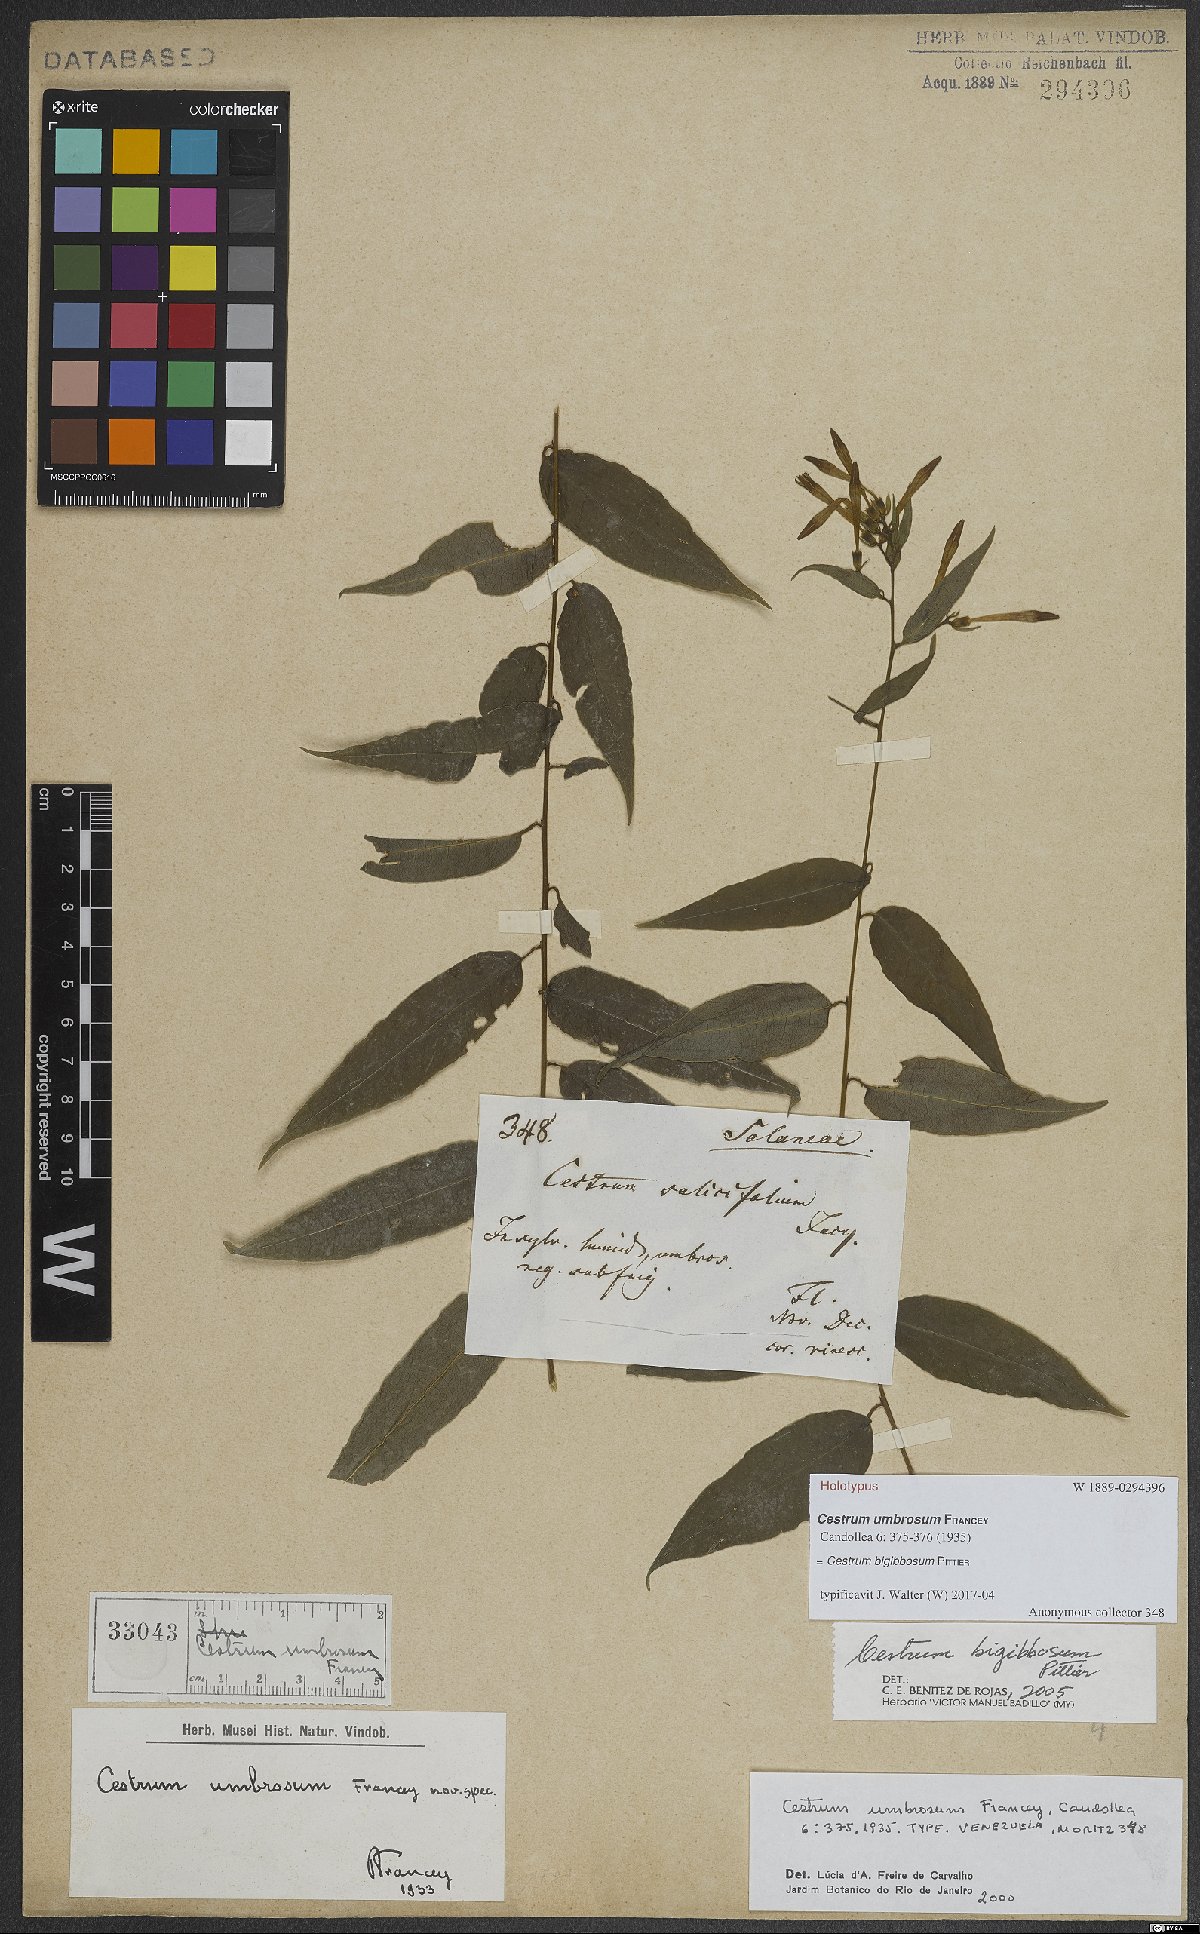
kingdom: Plantae
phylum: Tracheophyta
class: Magnoliopsida
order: Solanales
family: Solanaceae
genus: Cestrum
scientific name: Cestrum bigibbosum
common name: Bigibbous cestrum
